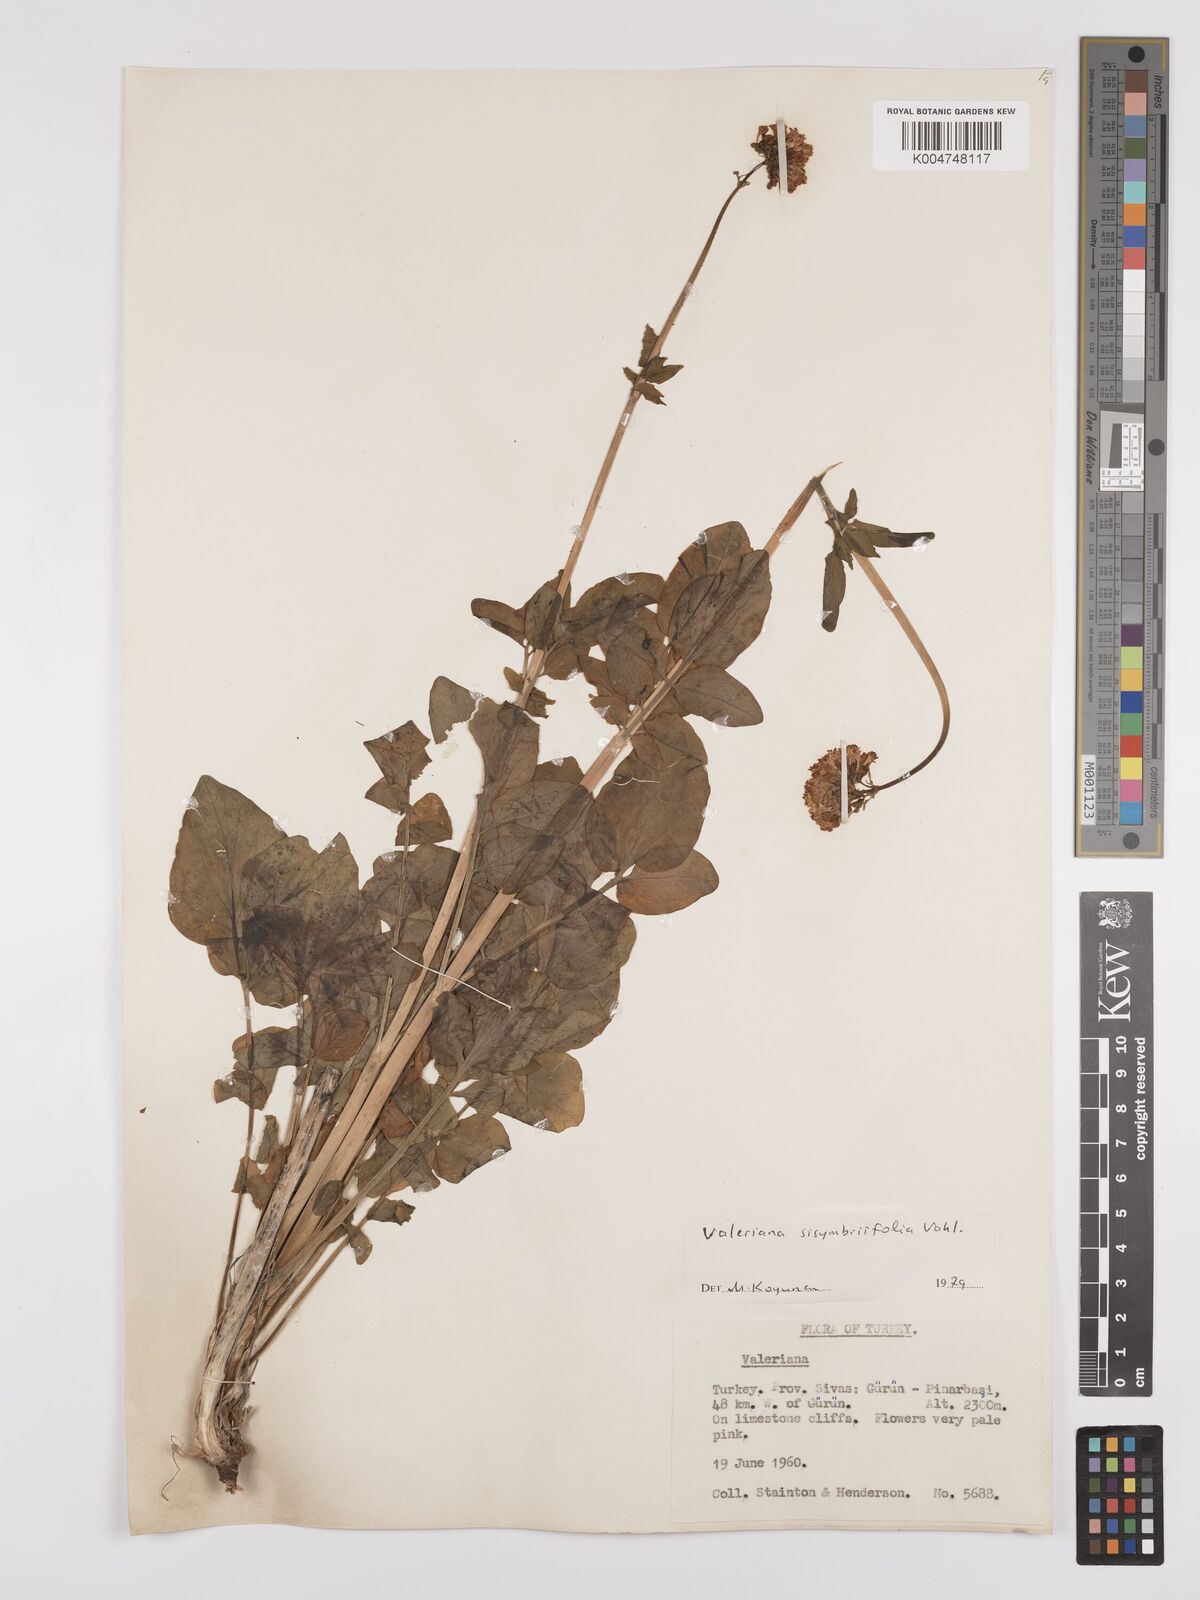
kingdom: Plantae
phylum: Tracheophyta
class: Magnoliopsida
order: Dipsacales
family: Caprifoliaceae
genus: Valeriana
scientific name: Valeriana
